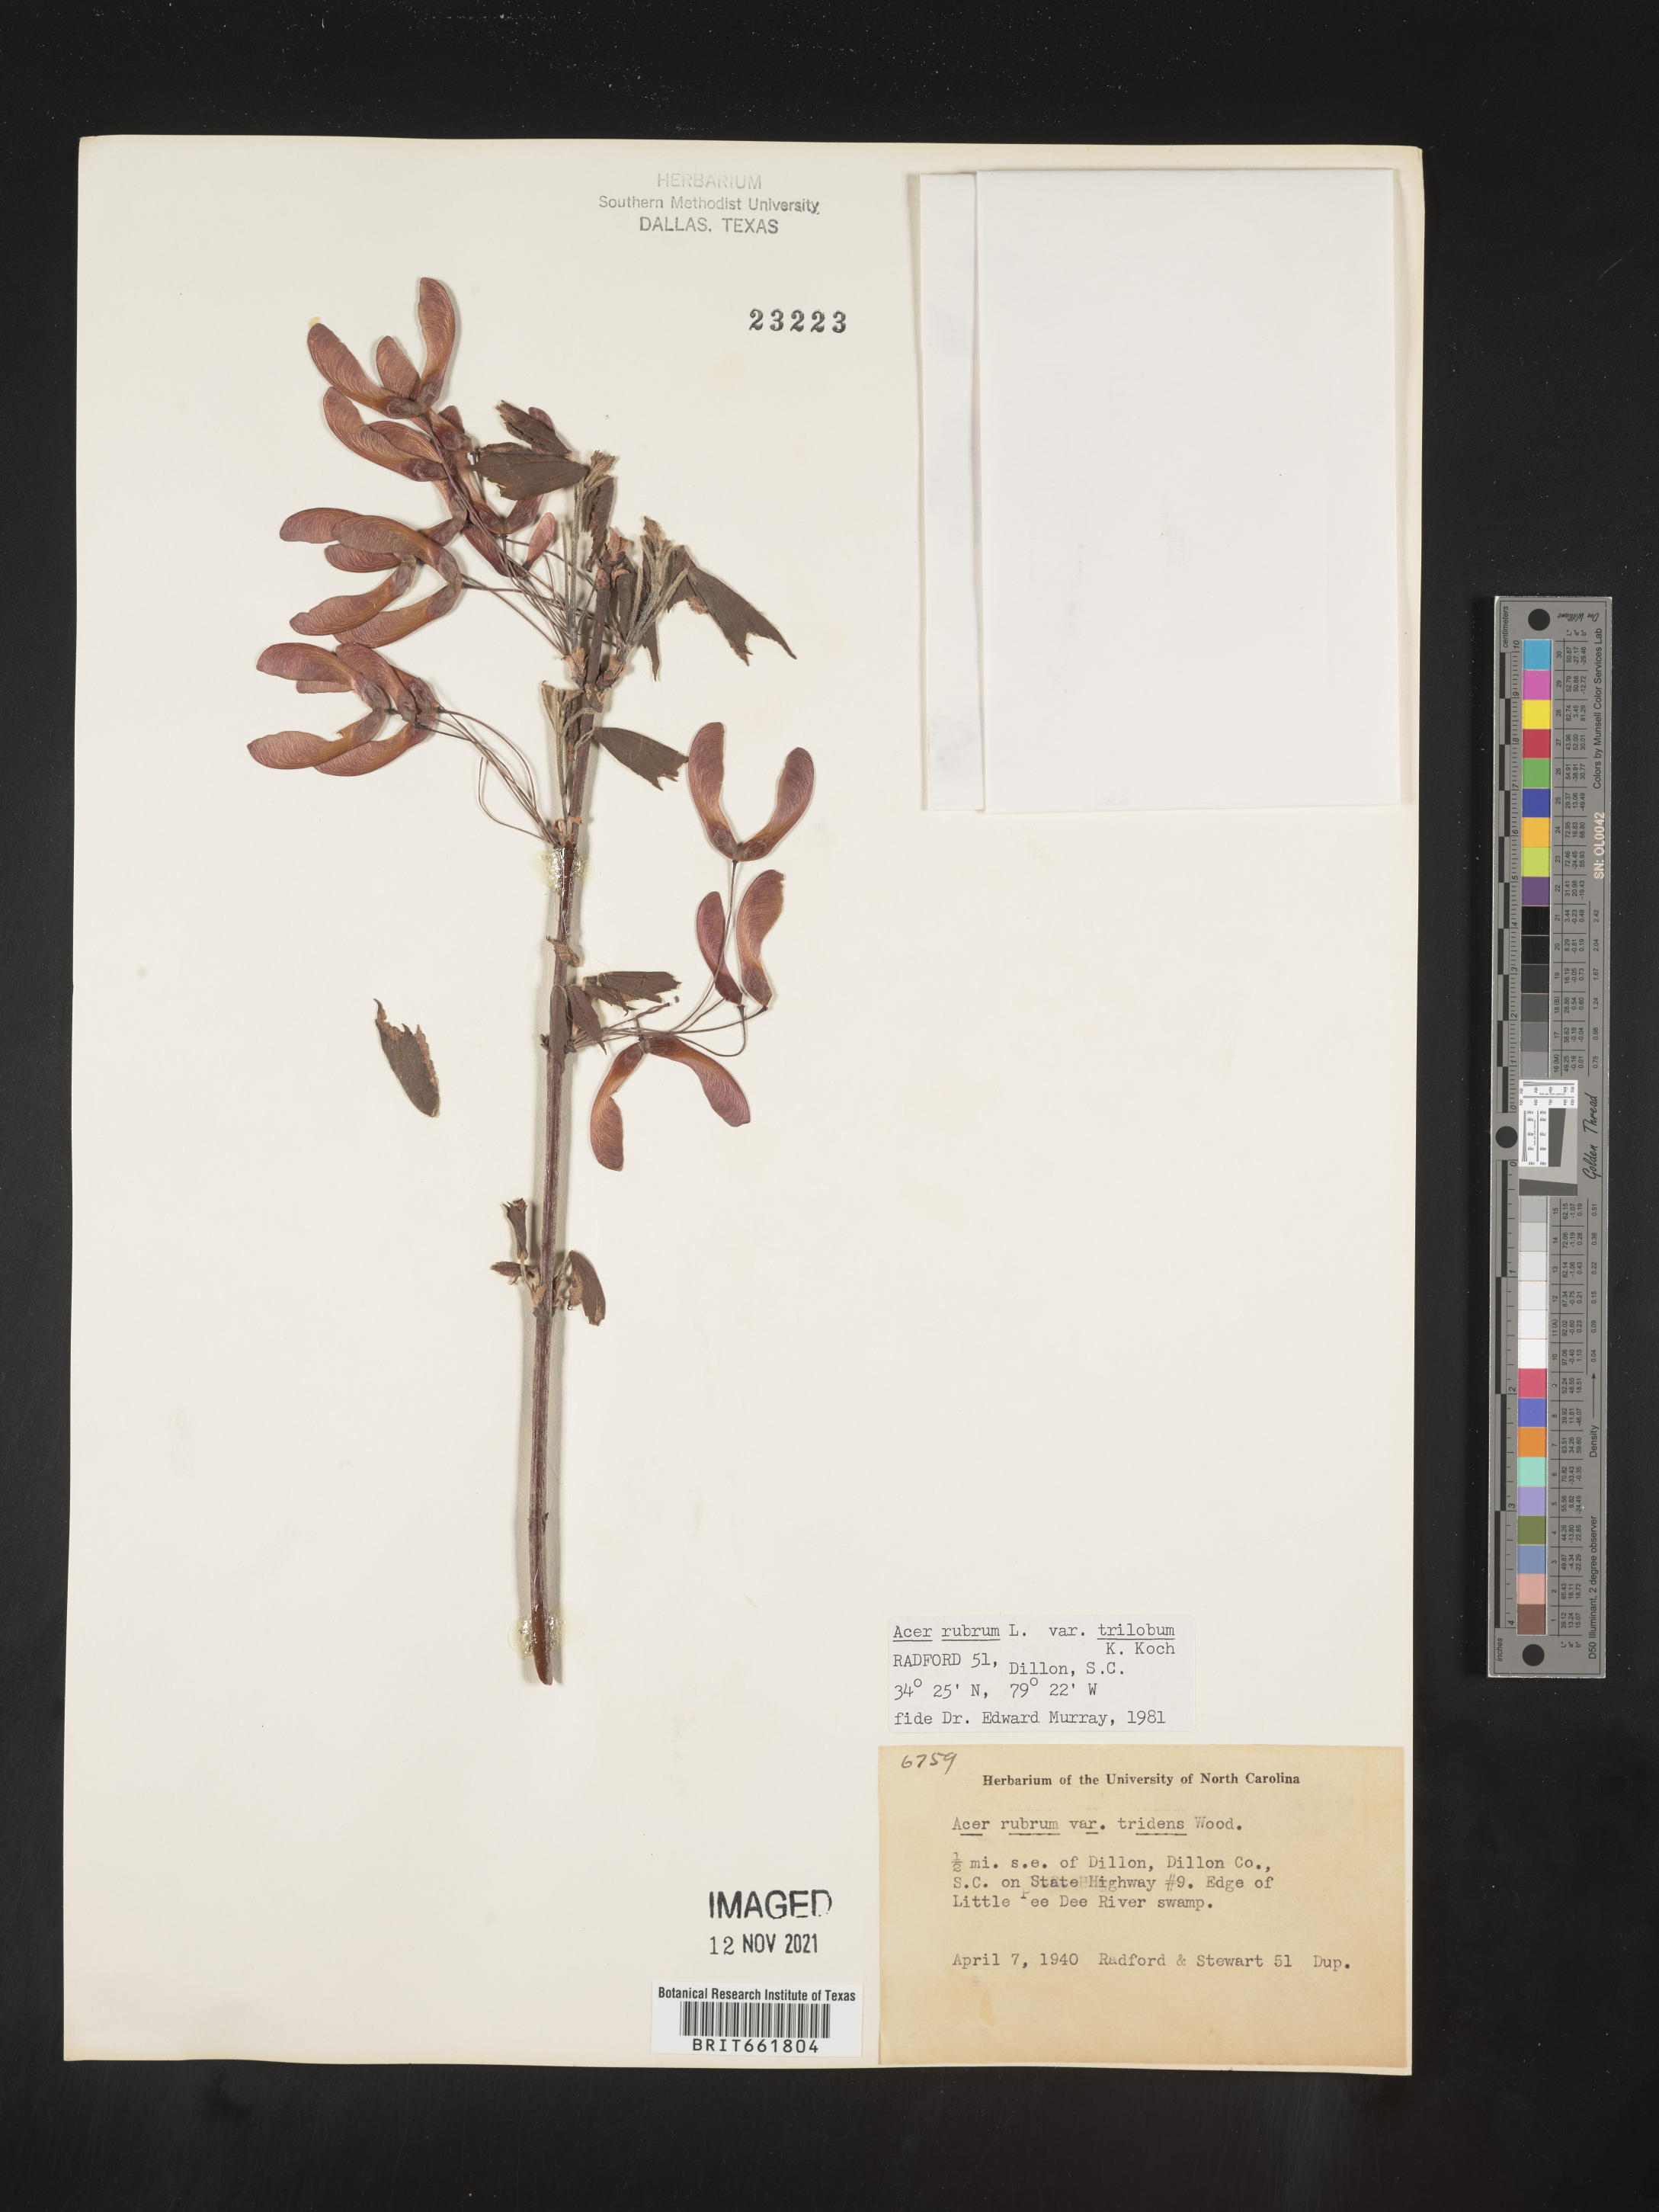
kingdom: Plantae
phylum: Tracheophyta
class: Magnoliopsida
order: Sapindales
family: Sapindaceae
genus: Acer
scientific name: Acer rubrum
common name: Red maple
